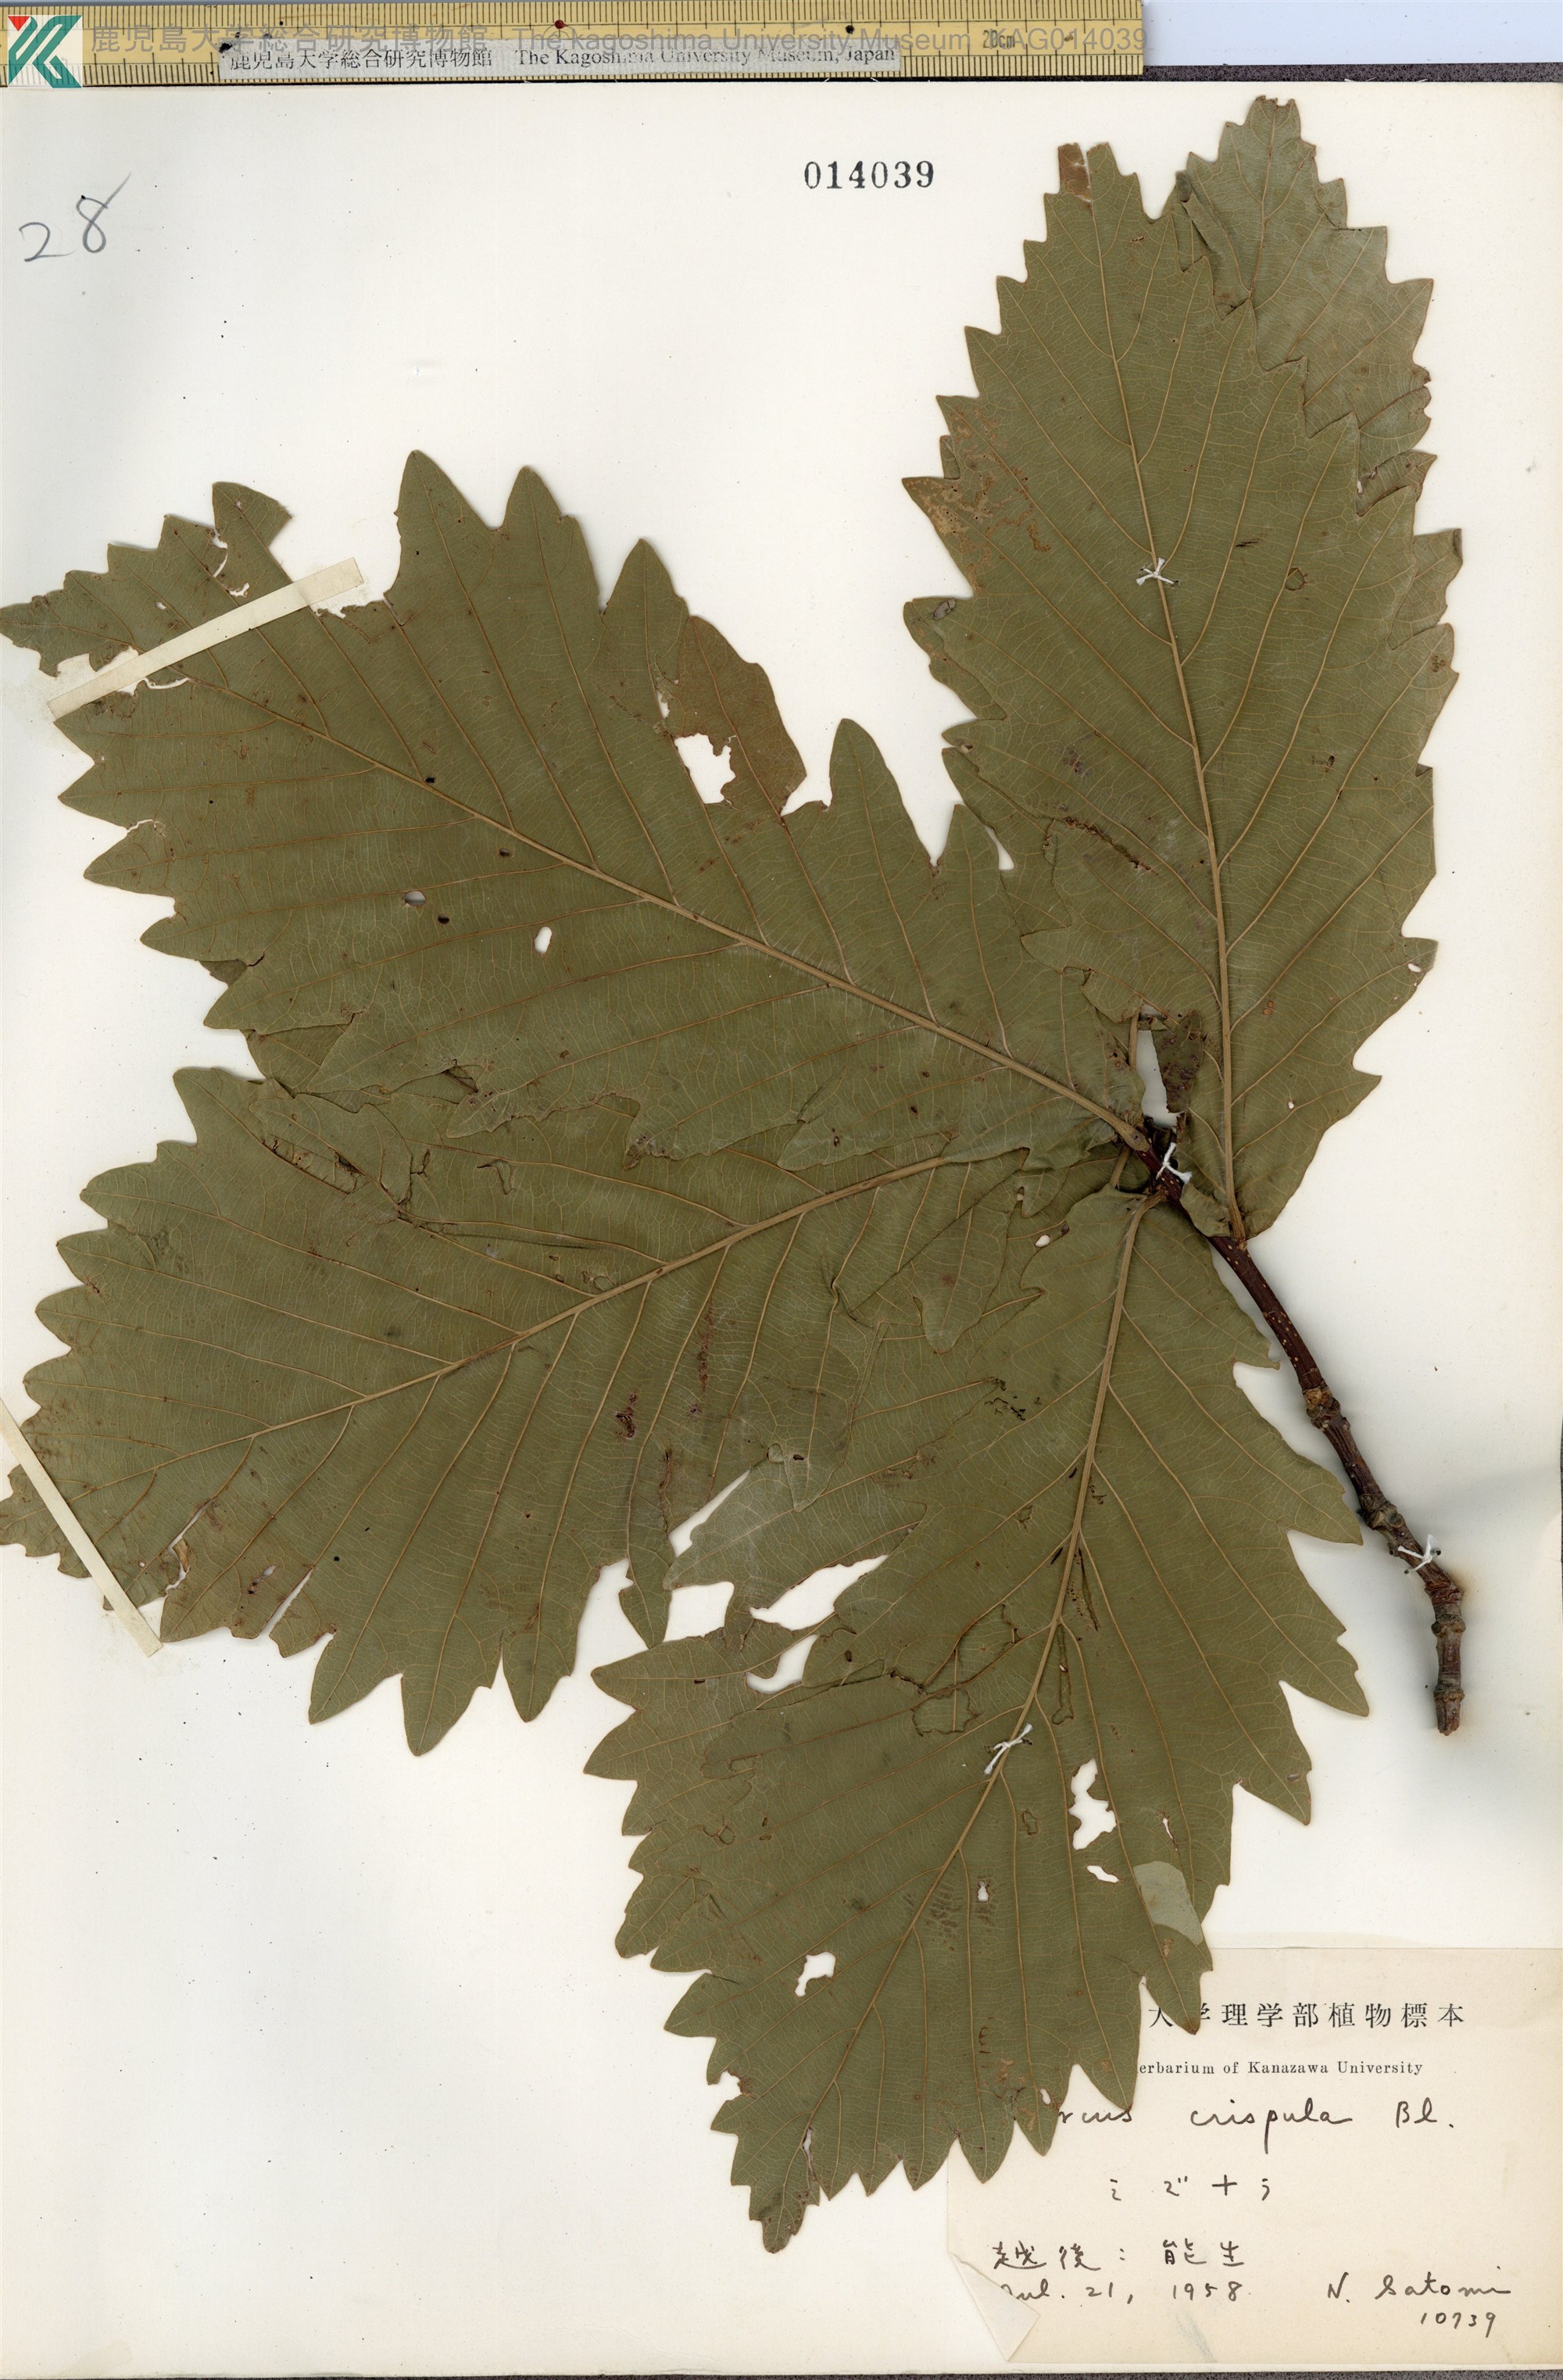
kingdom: Plantae
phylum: Tracheophyta
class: Magnoliopsida
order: Fagales
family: Fagaceae
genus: Quercus
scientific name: Quercus crispula
